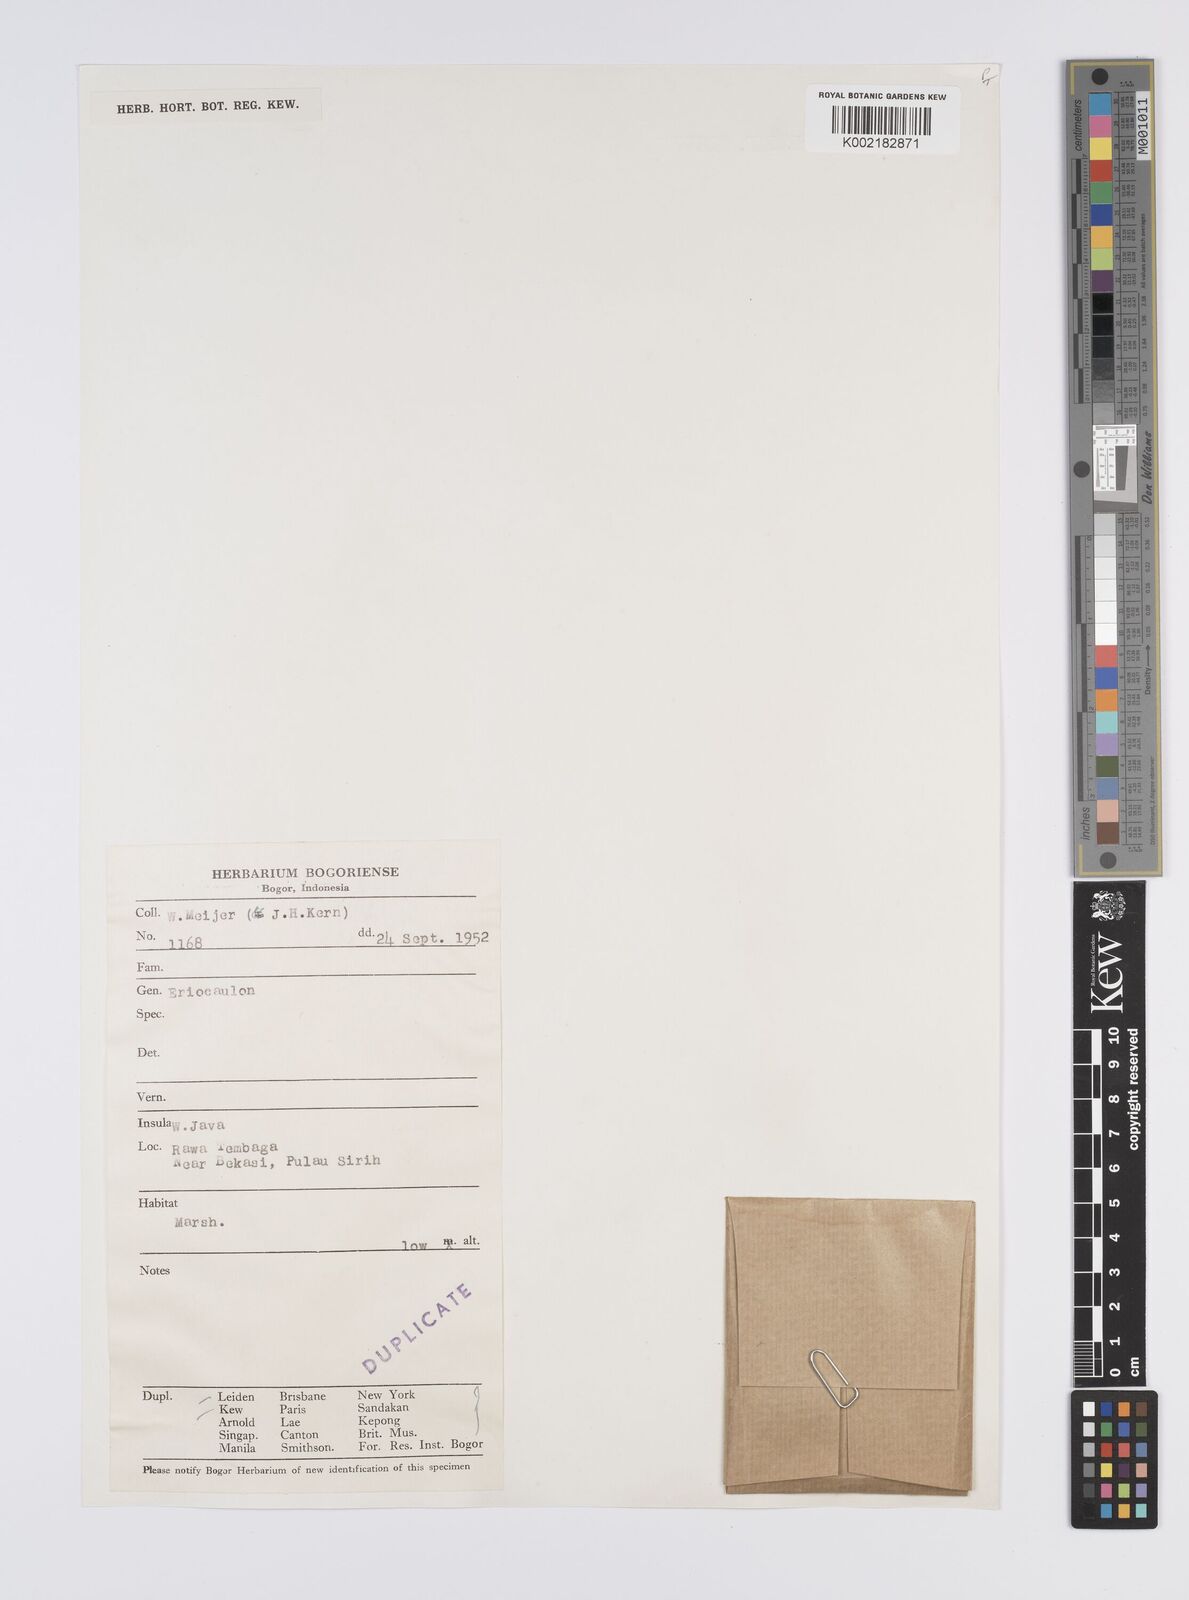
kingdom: Plantae
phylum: Tracheophyta
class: Liliopsida
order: Poales
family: Eriocaulaceae
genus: Eriocaulon
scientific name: Eriocaulon
